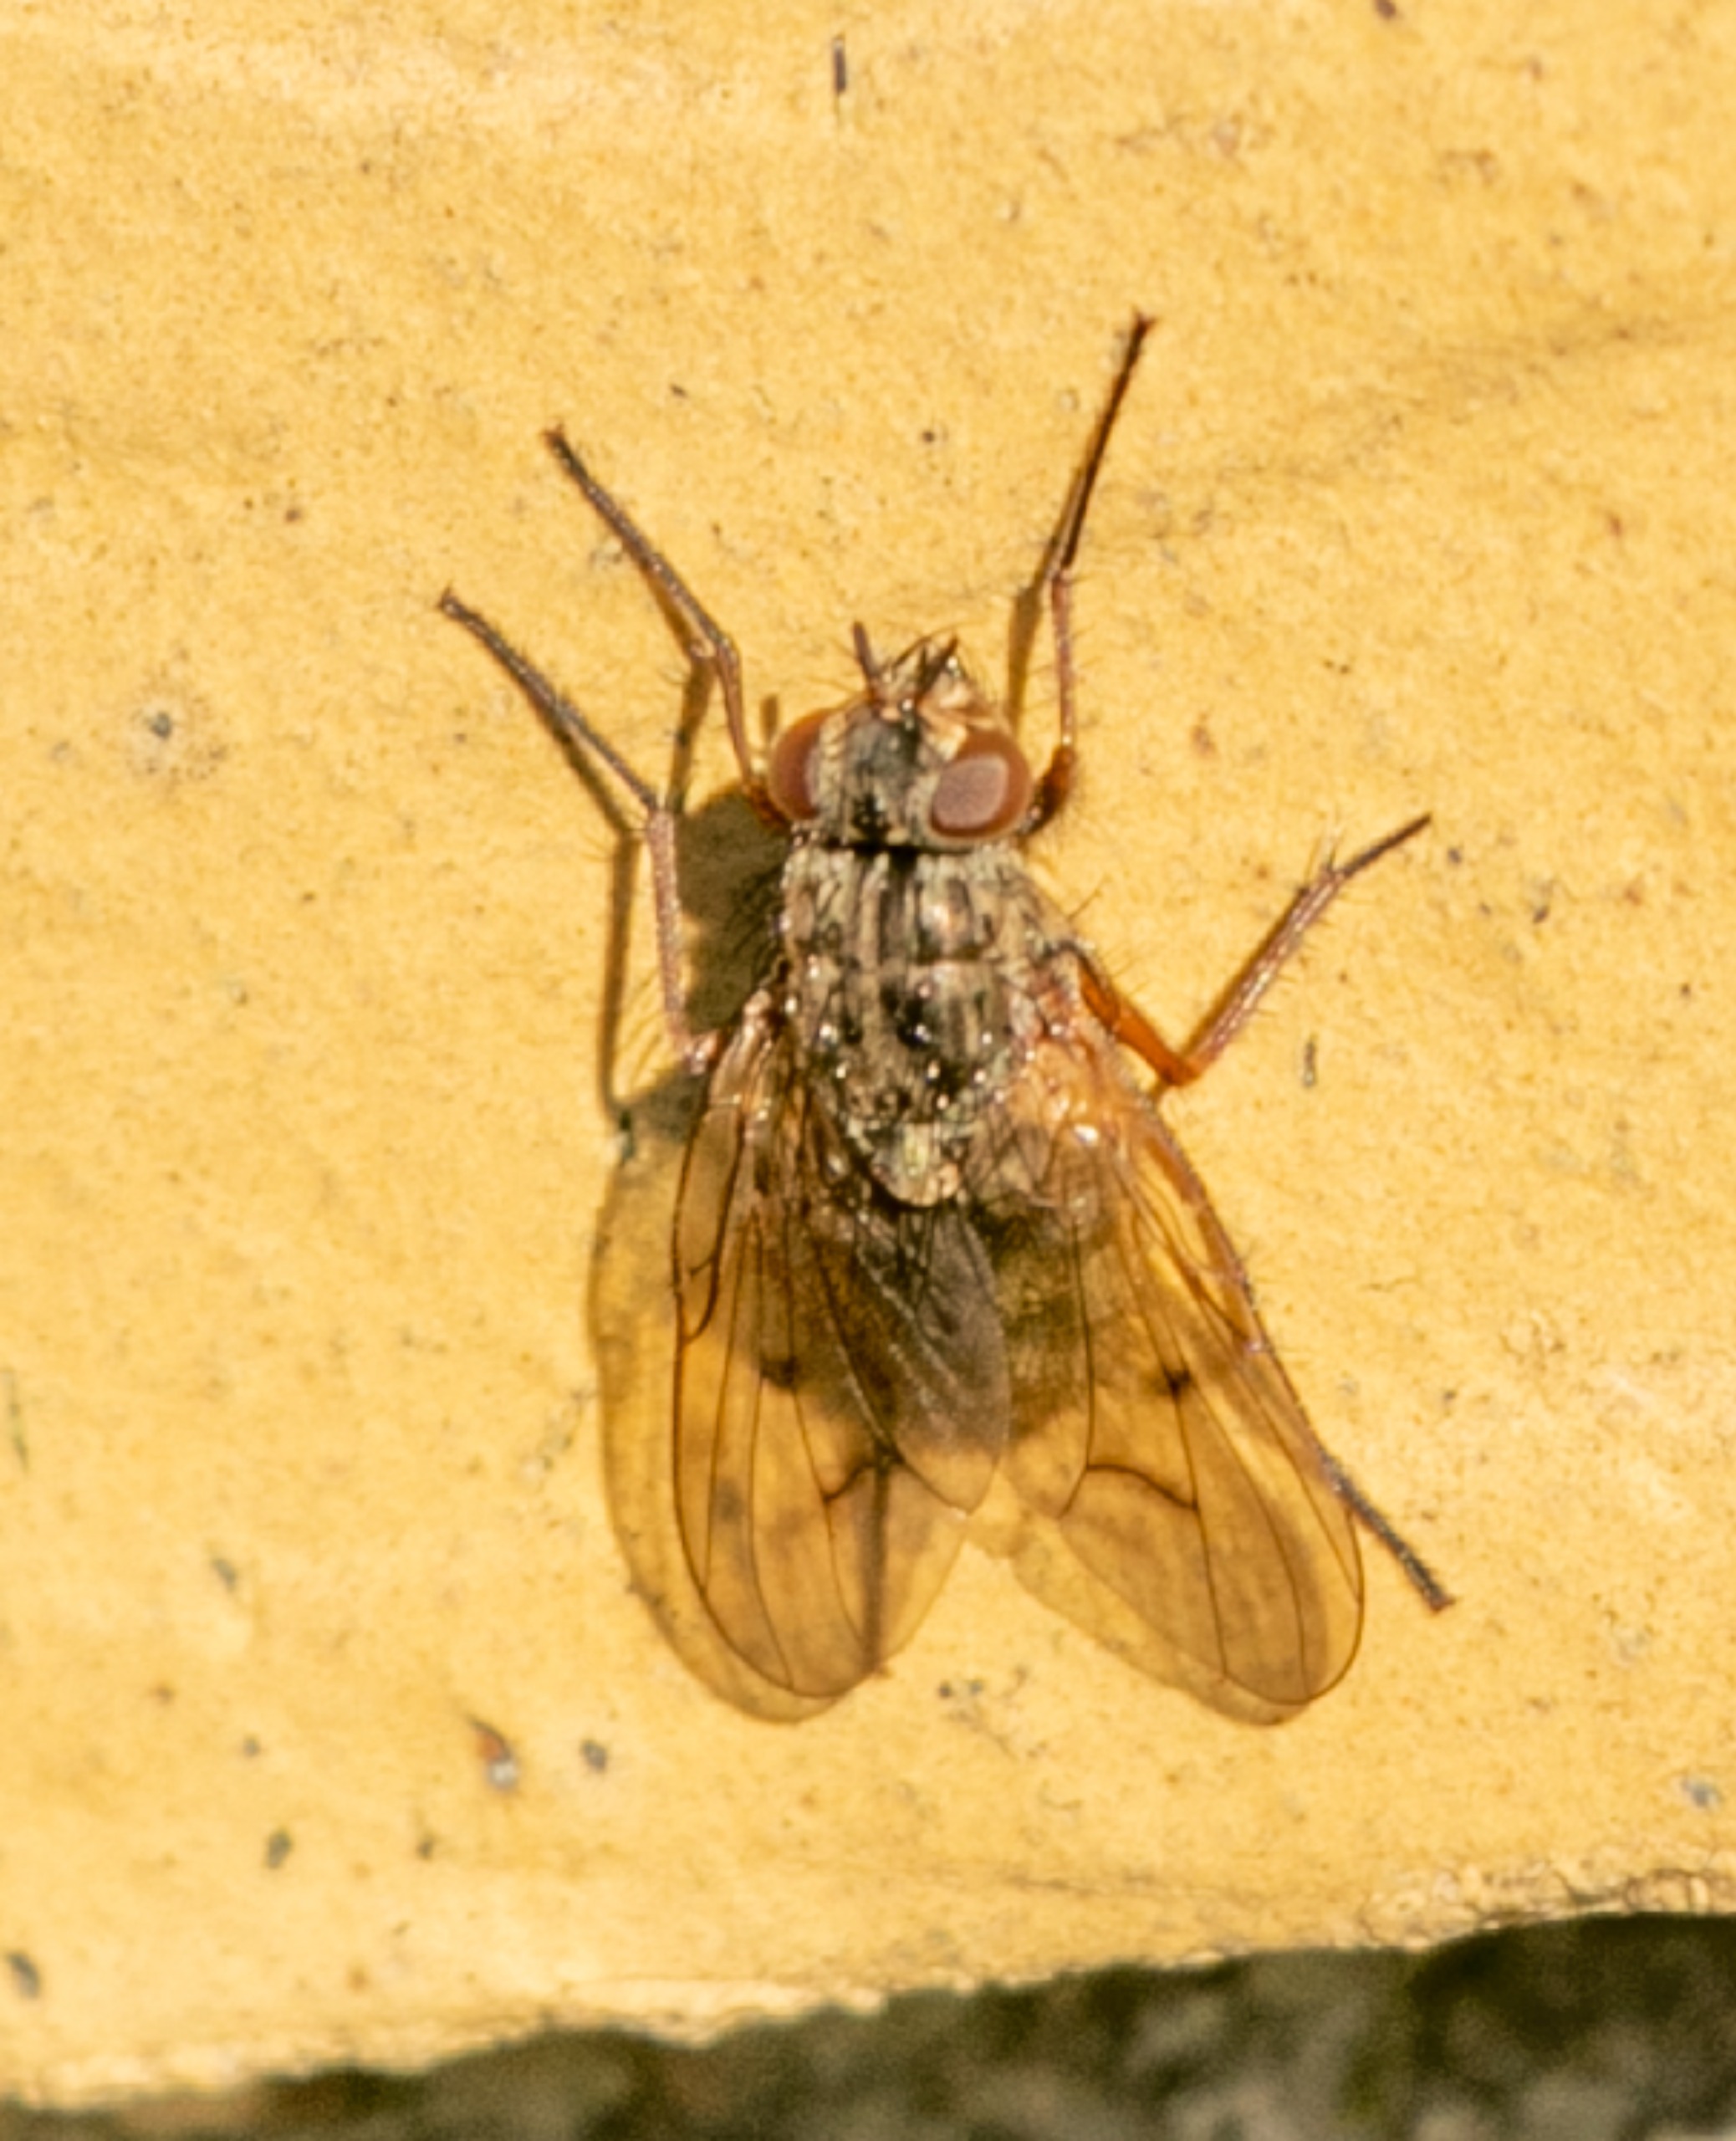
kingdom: Animalia
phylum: Arthropoda
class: Insecta
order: Diptera
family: Muscidae
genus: Phaonia
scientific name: Phaonia tuguriorum
